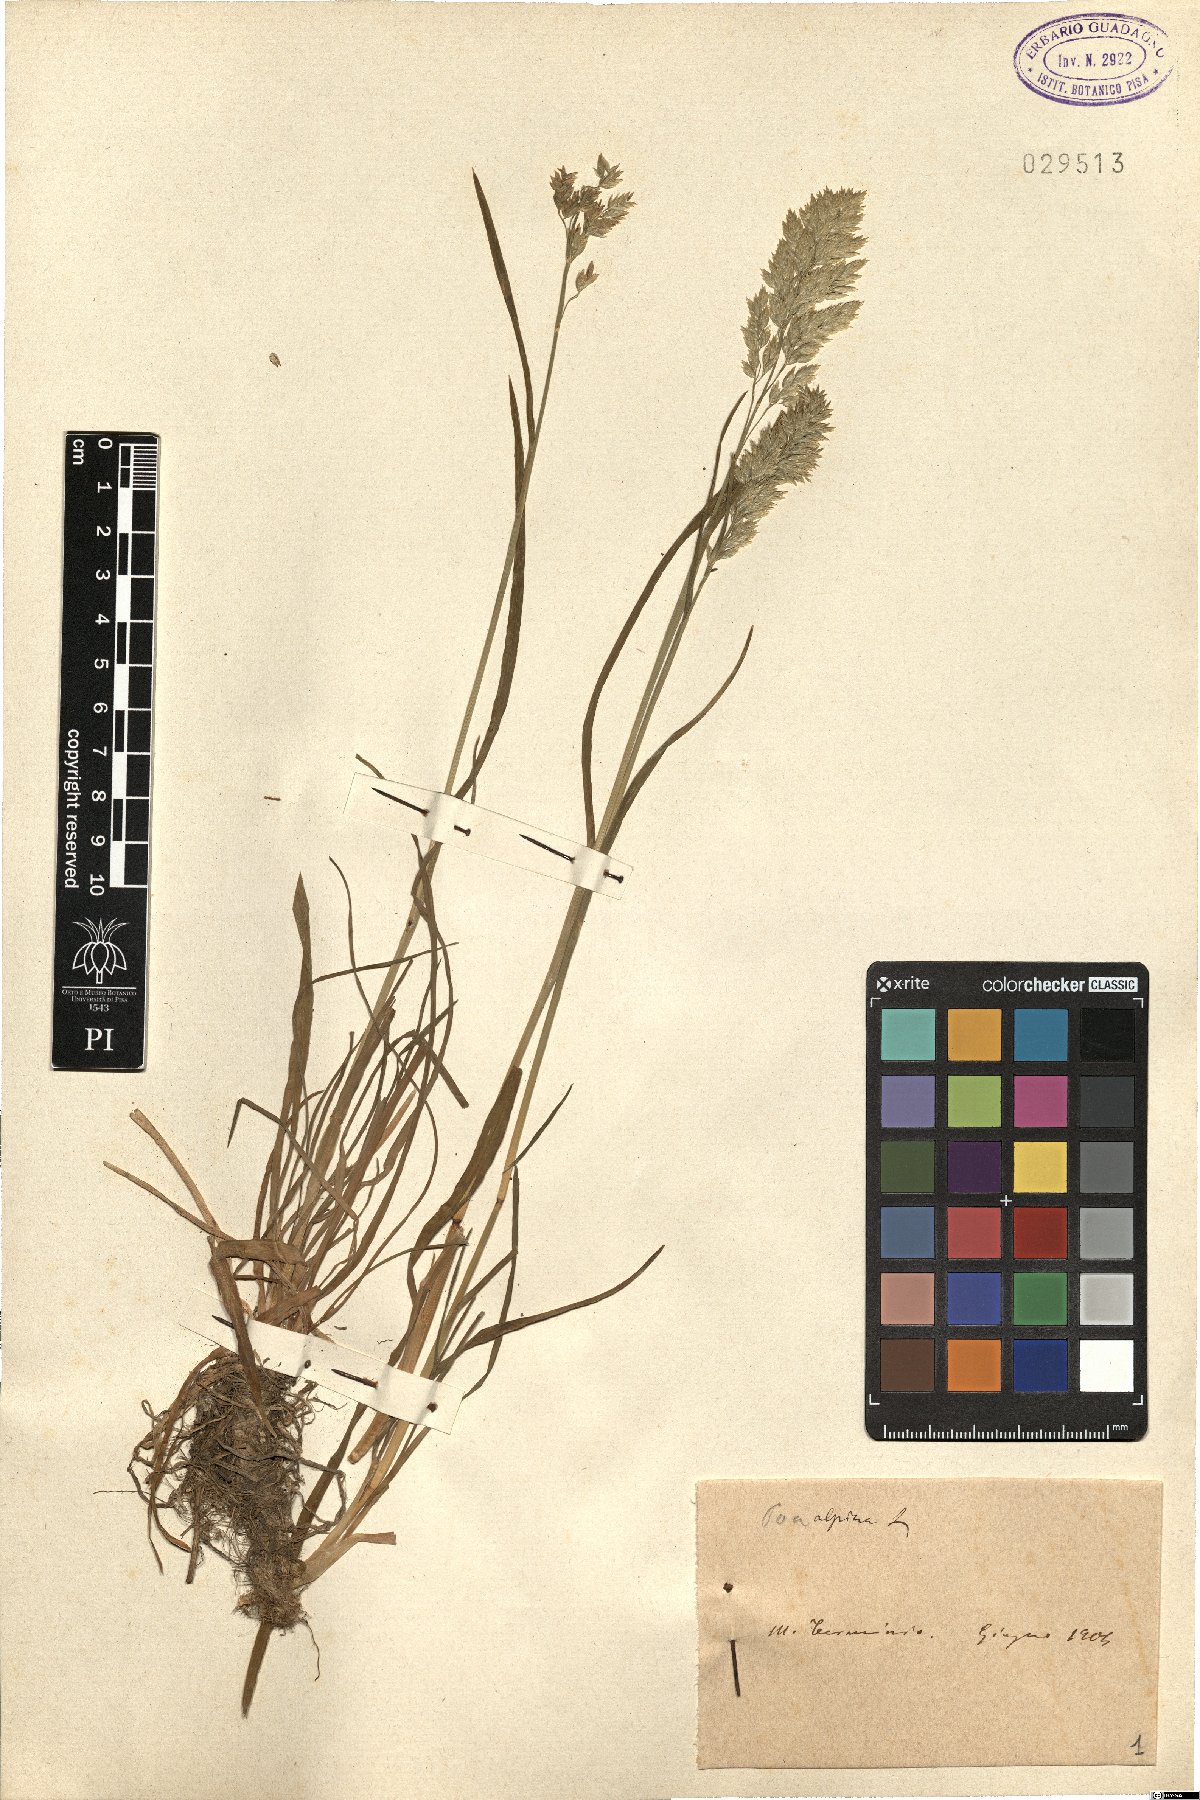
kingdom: Plantae
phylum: Tracheophyta
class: Liliopsida
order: Poales
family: Poaceae
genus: Poa
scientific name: Poa alpina
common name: Alpine bluegrass
